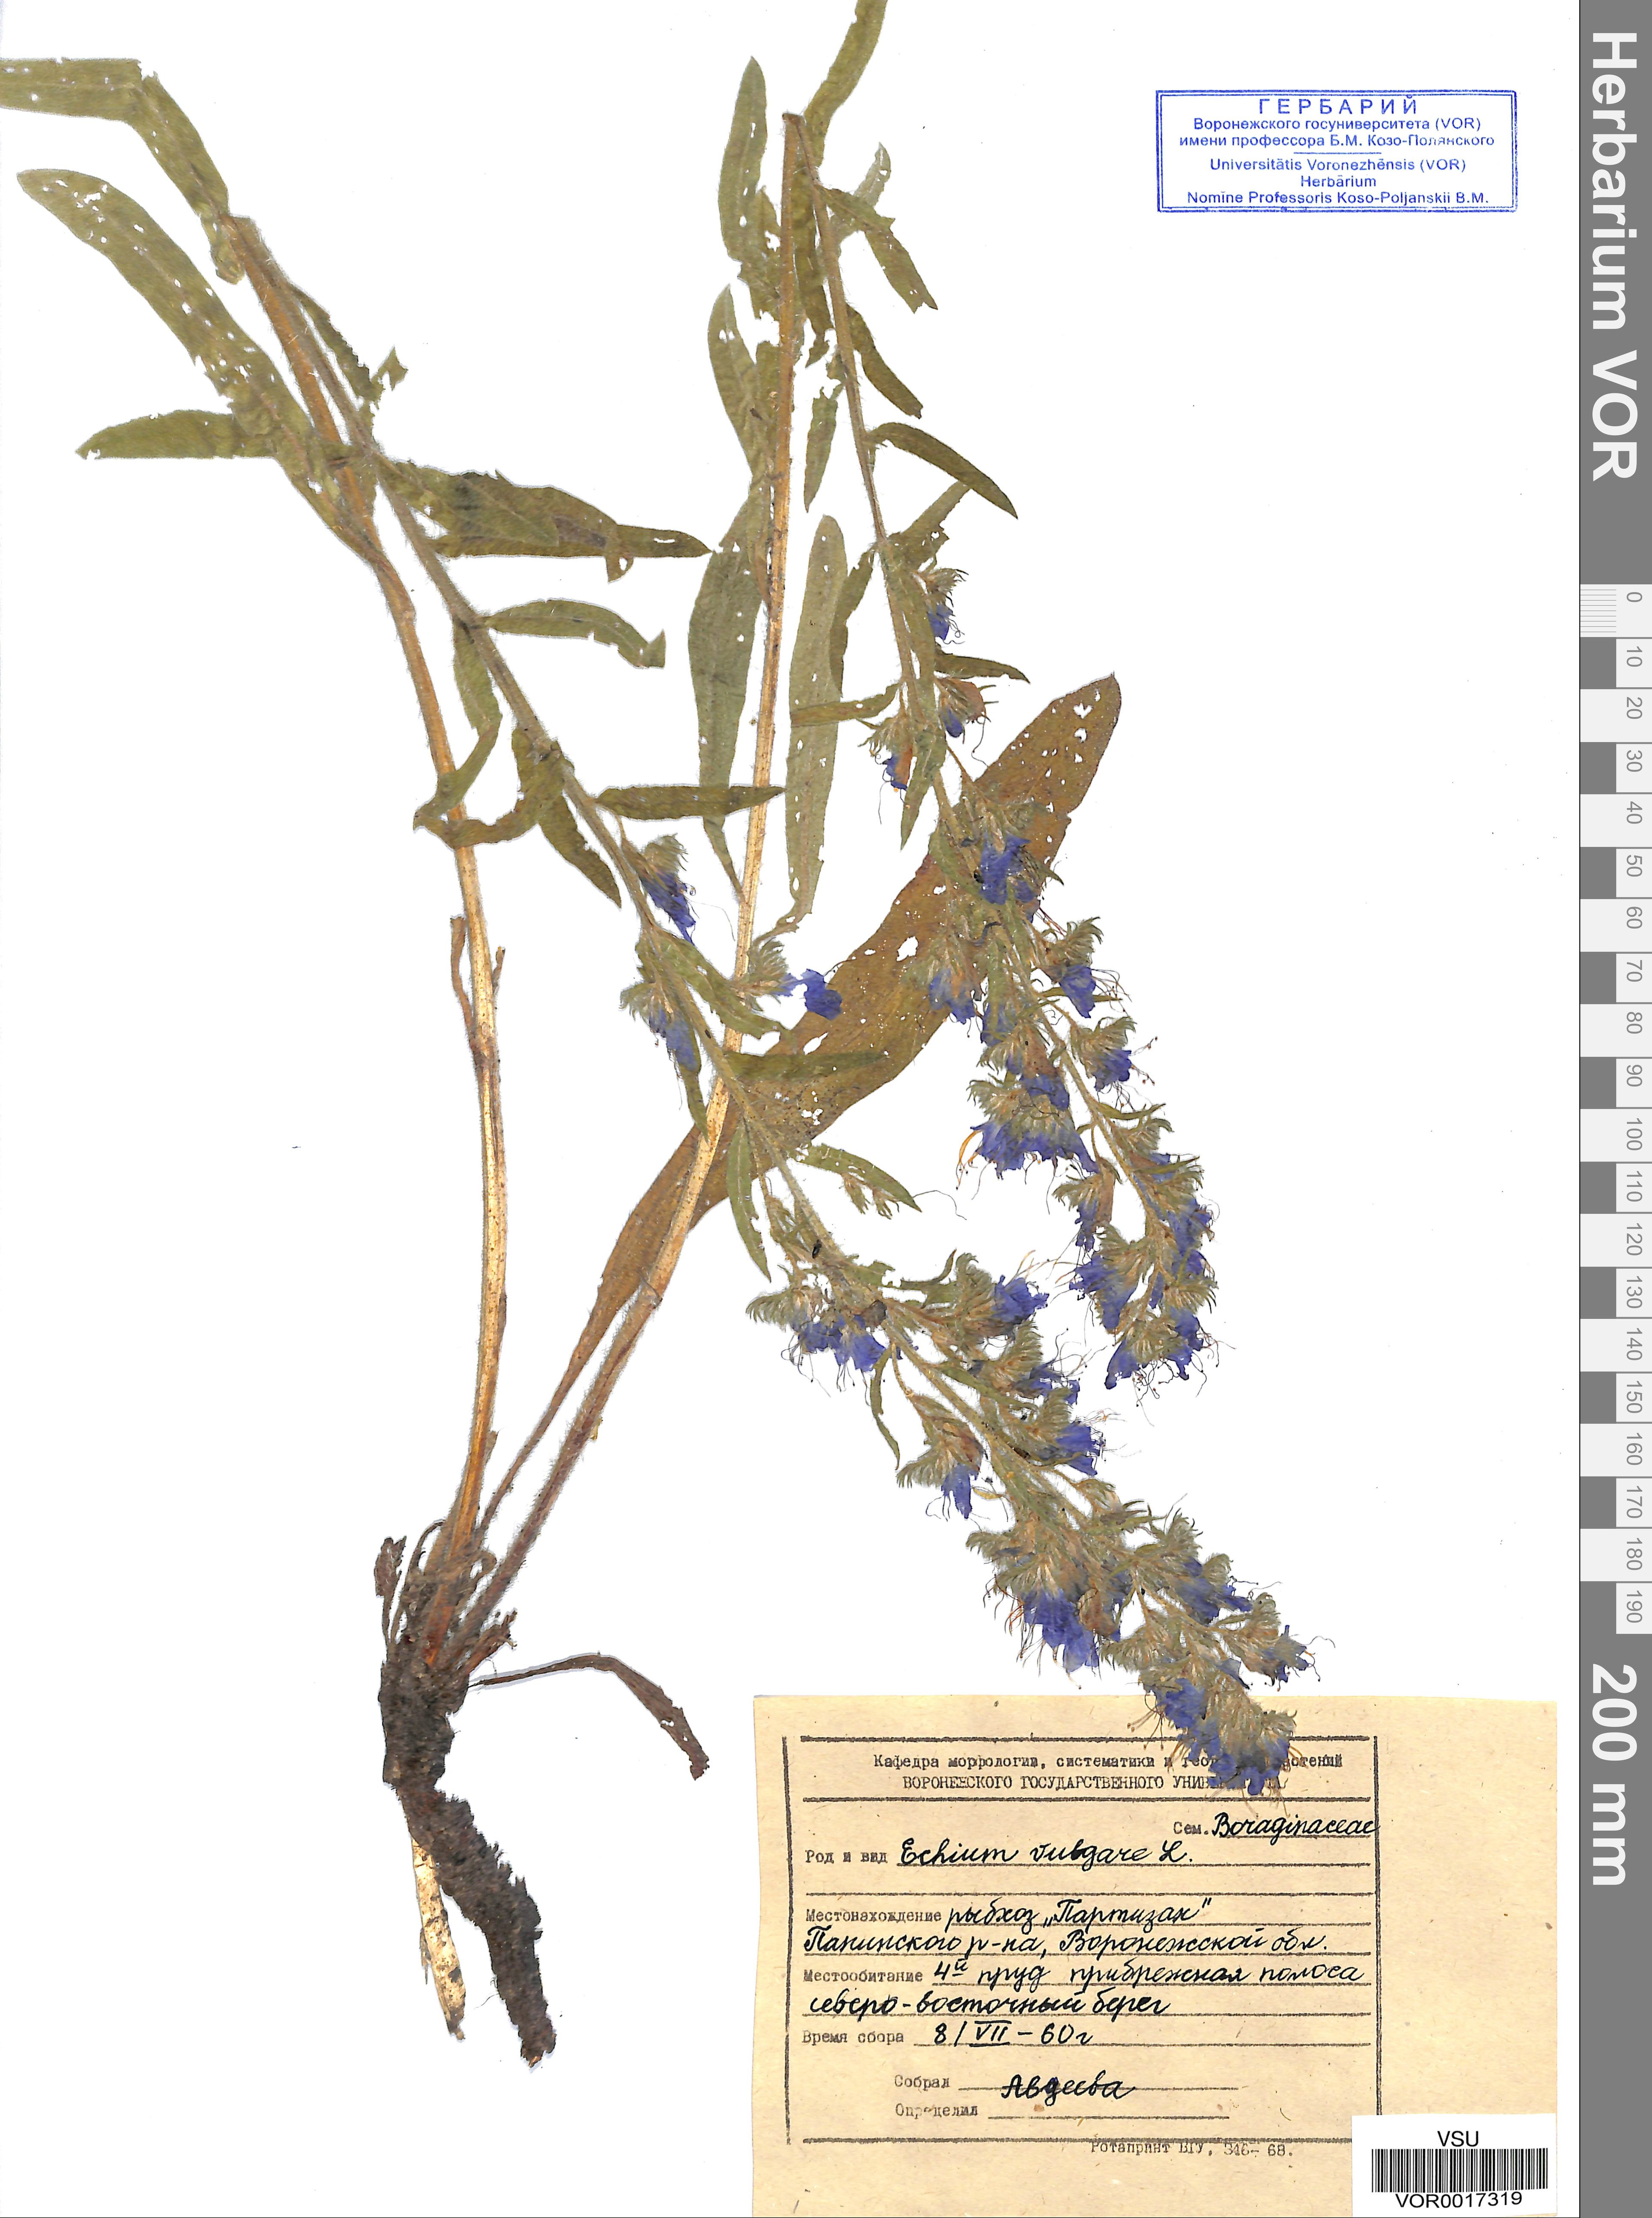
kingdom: Plantae
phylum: Tracheophyta
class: Magnoliopsida
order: Boraginales
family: Boraginaceae
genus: Echium
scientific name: Echium vulgare
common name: Common viper's bugloss
